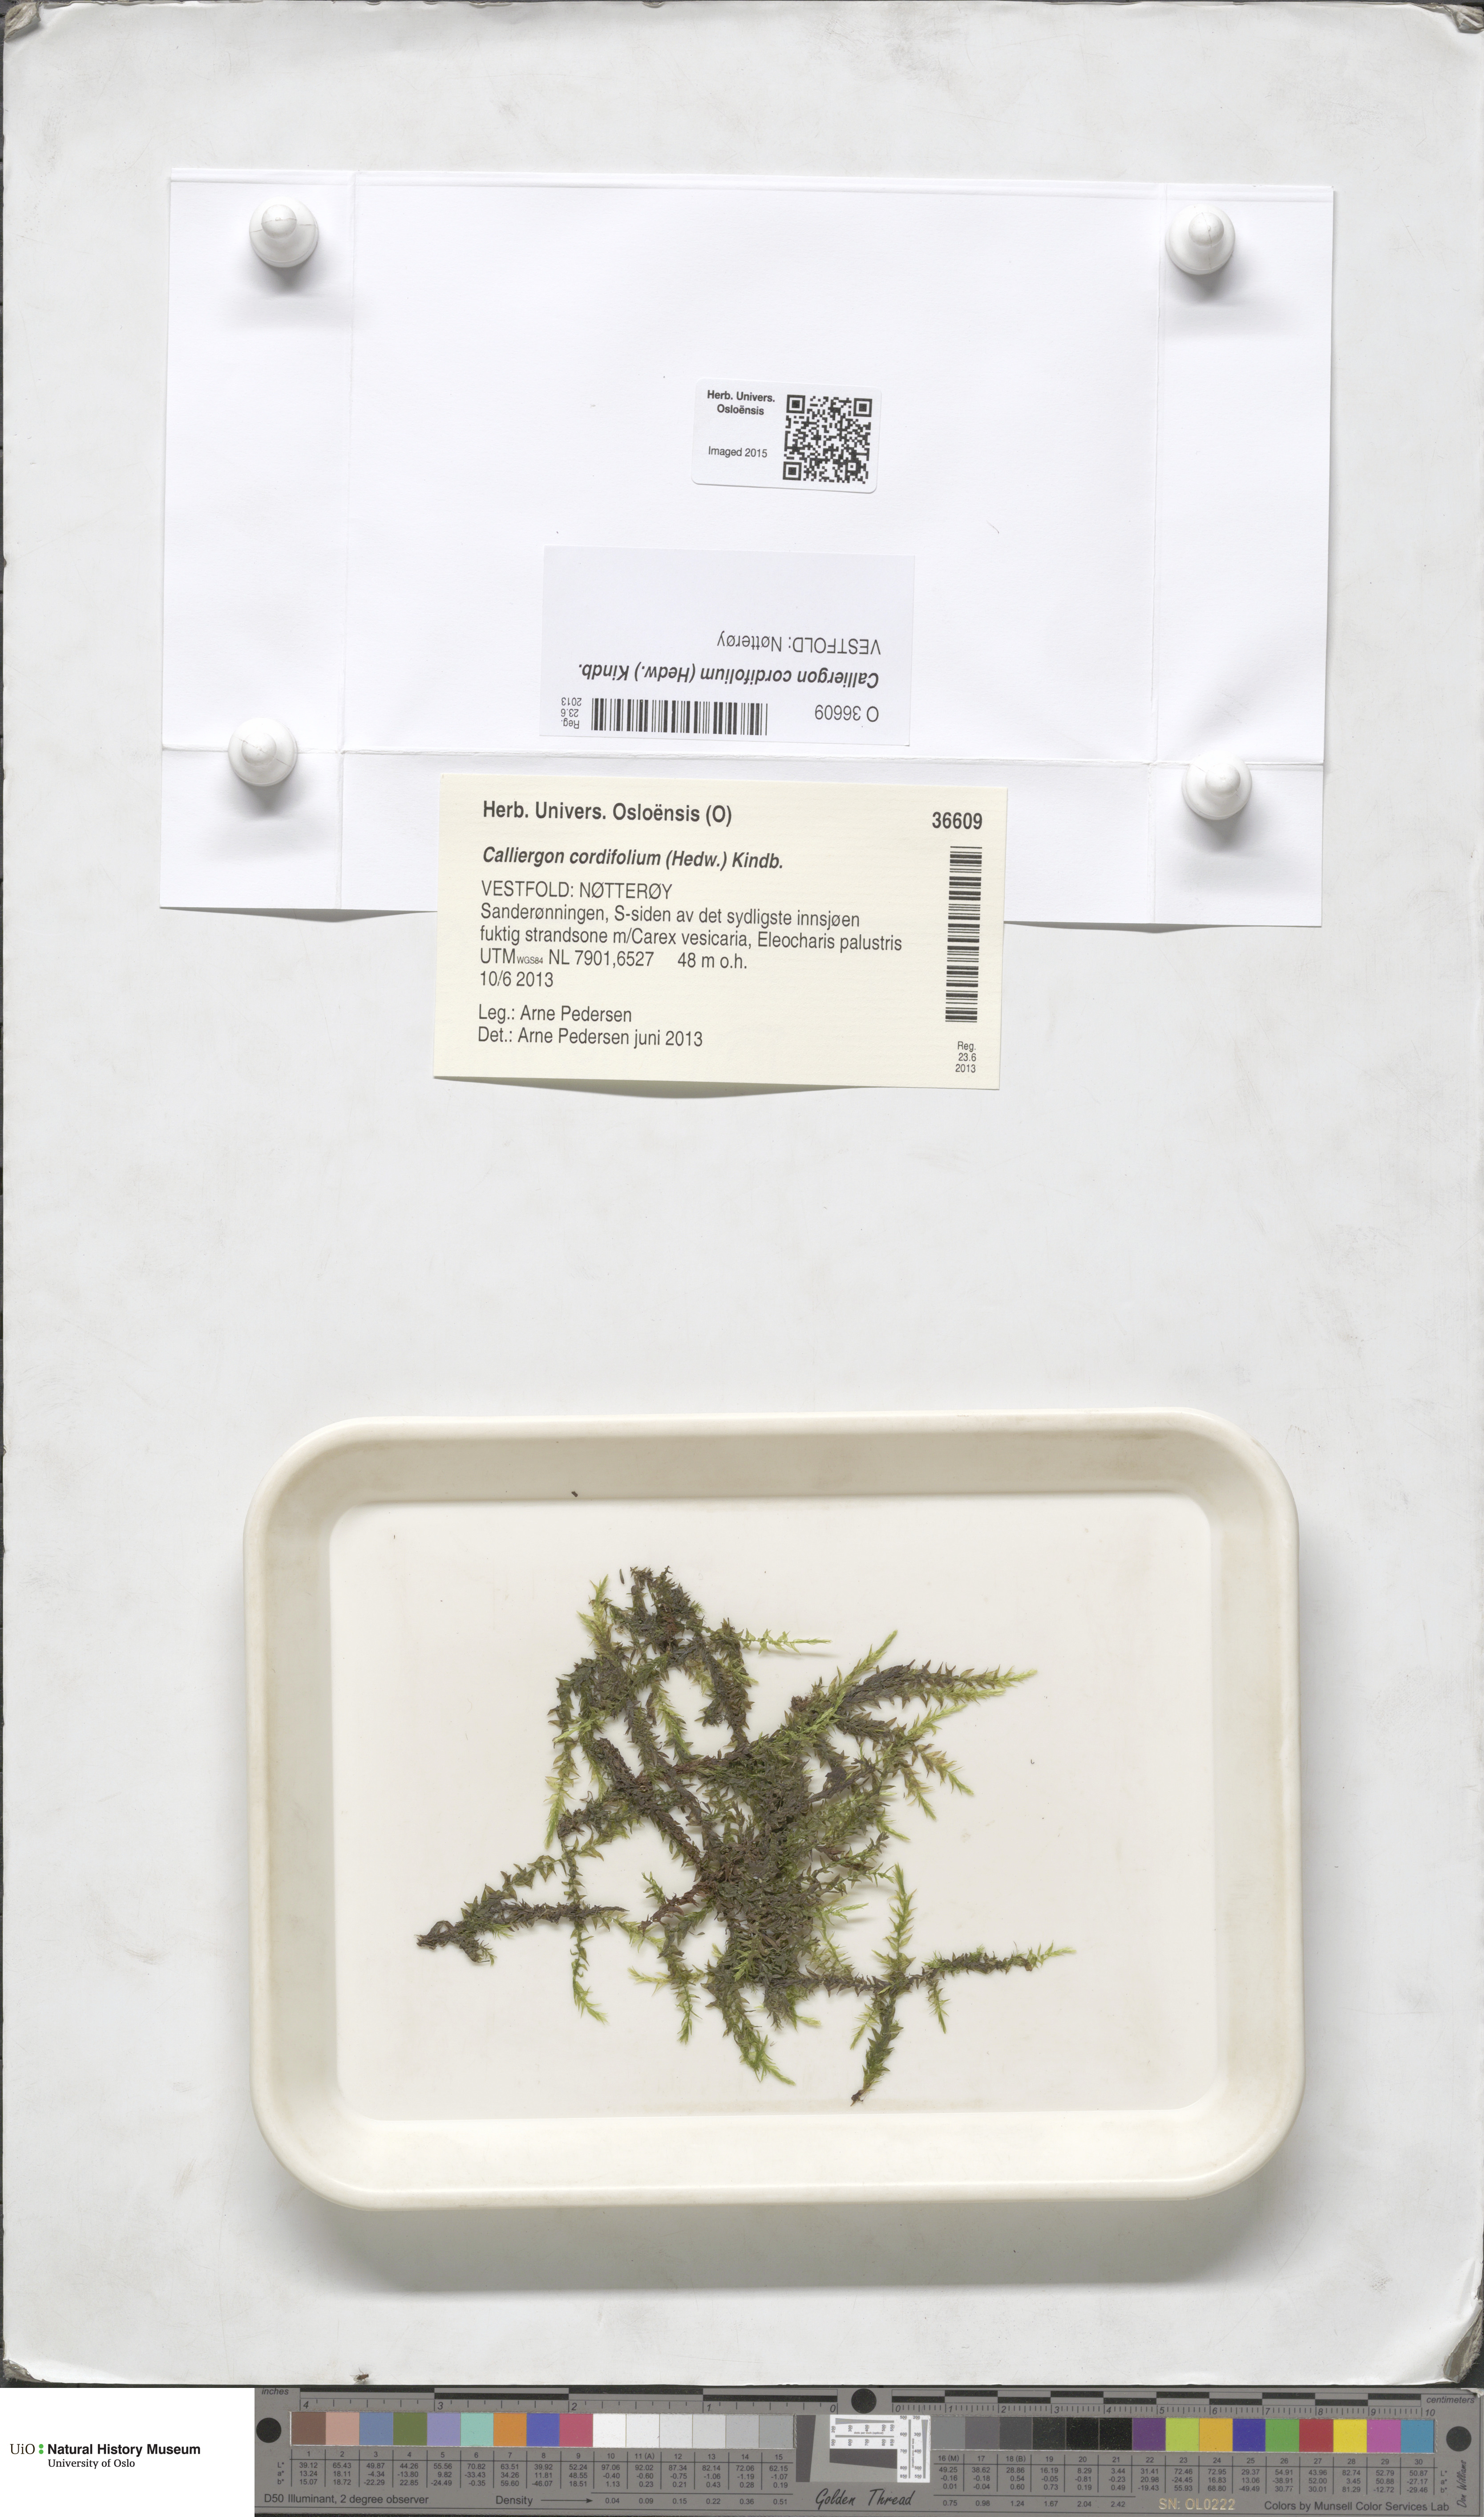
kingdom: Plantae
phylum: Bryophyta
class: Bryopsida
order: Hypnales
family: Calliergonaceae
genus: Calliergon
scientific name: Calliergon cordifolium
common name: Heart-leaved spear moss
